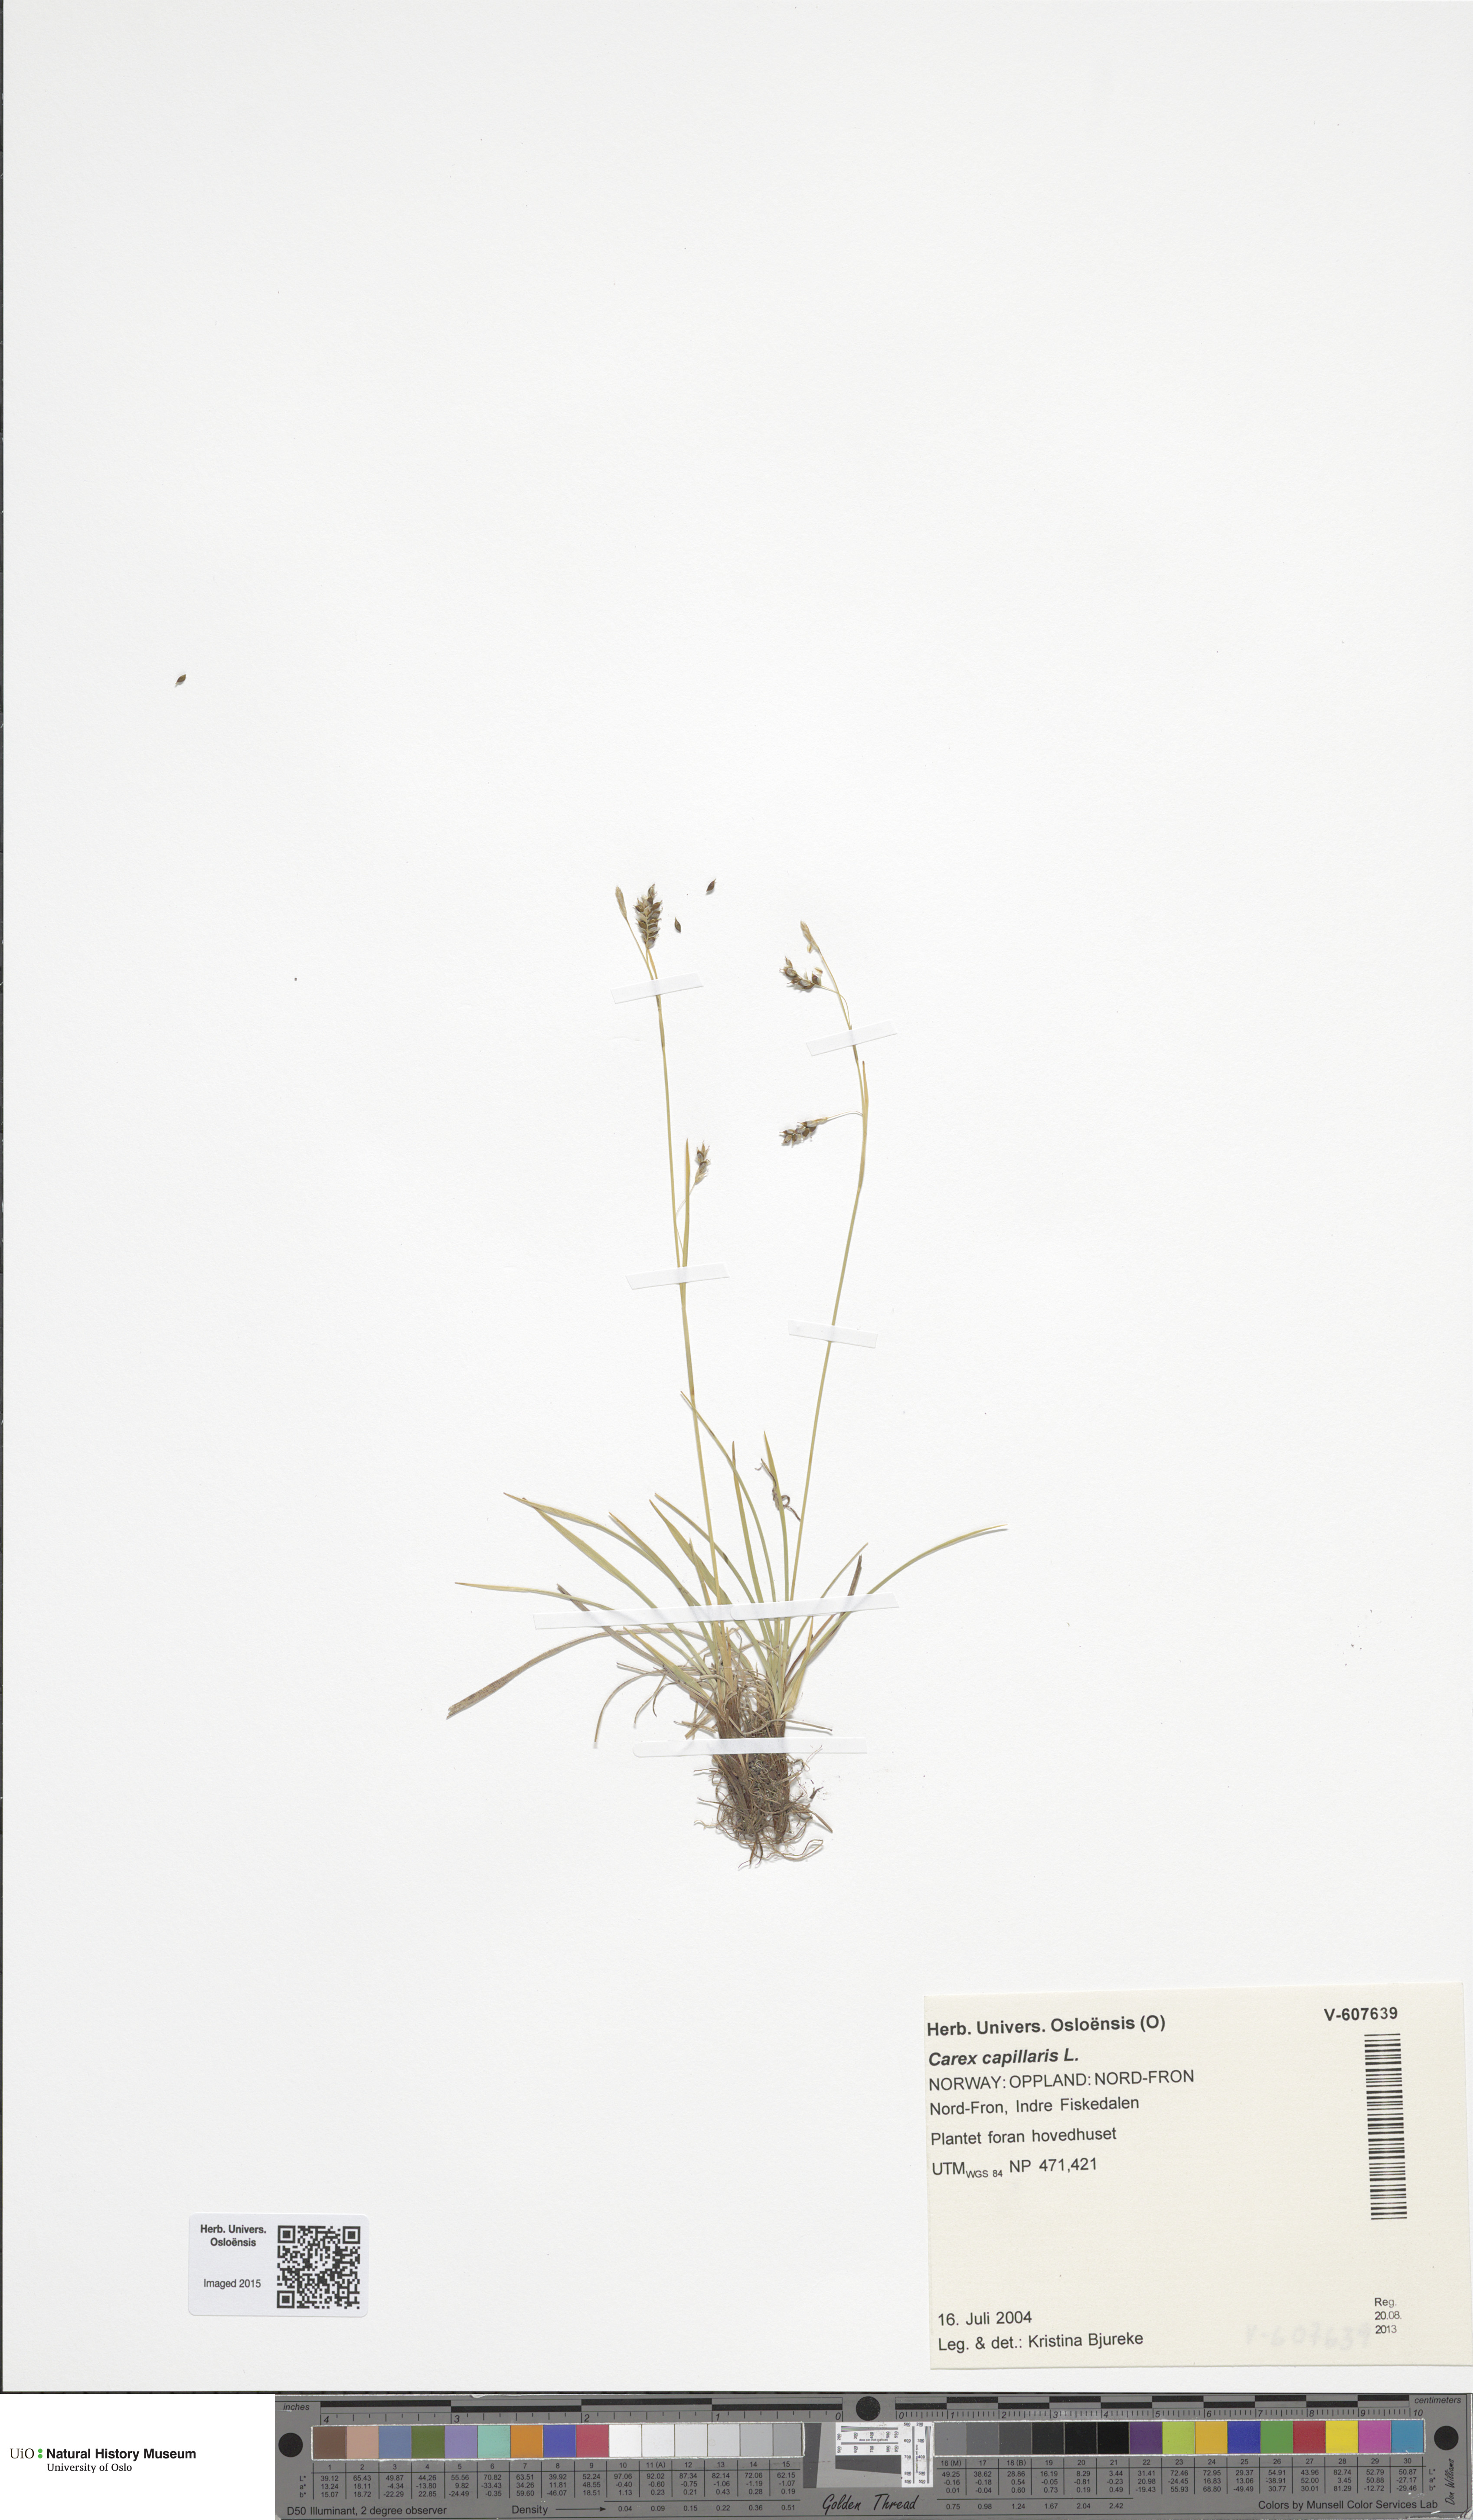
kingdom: Plantae
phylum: Tracheophyta
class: Liliopsida
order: Poales
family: Cyperaceae
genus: Carex
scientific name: Carex capillaris
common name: Hair sedge
